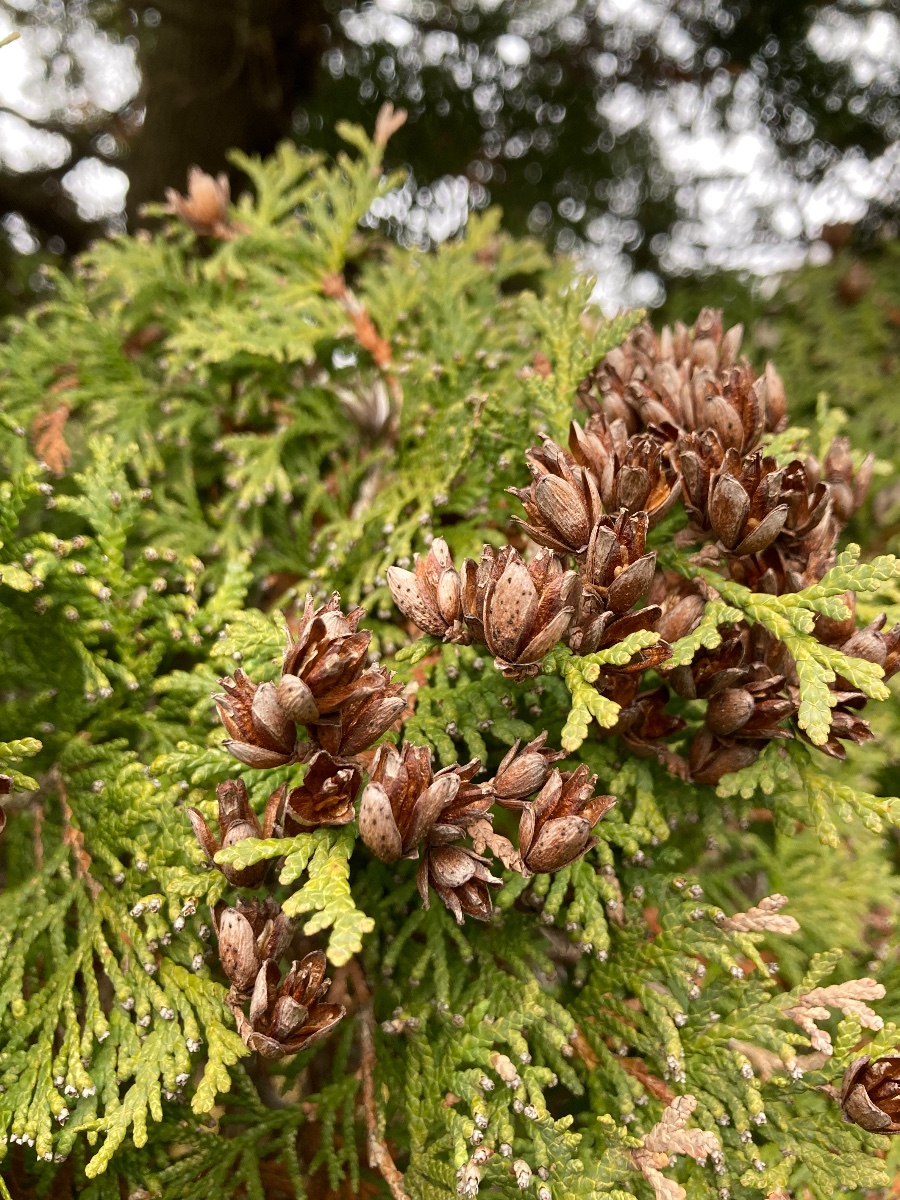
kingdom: Fungi
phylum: Ascomycota
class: Sordariomycetes
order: Amphisphaeriales
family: Sporocadaceae
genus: Seimatosporium
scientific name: Seimatosporium
